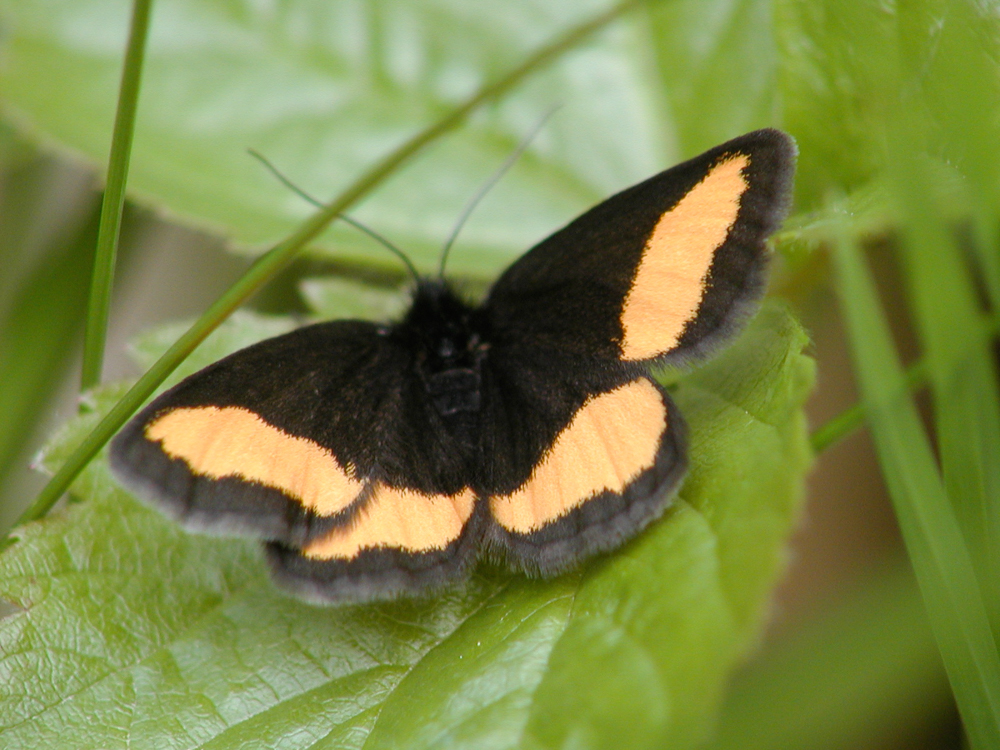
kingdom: Animalia
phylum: Arthropoda
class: Insecta
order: Lepidoptera
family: Geometridae
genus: Psodos
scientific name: Psodos quadrifaria
